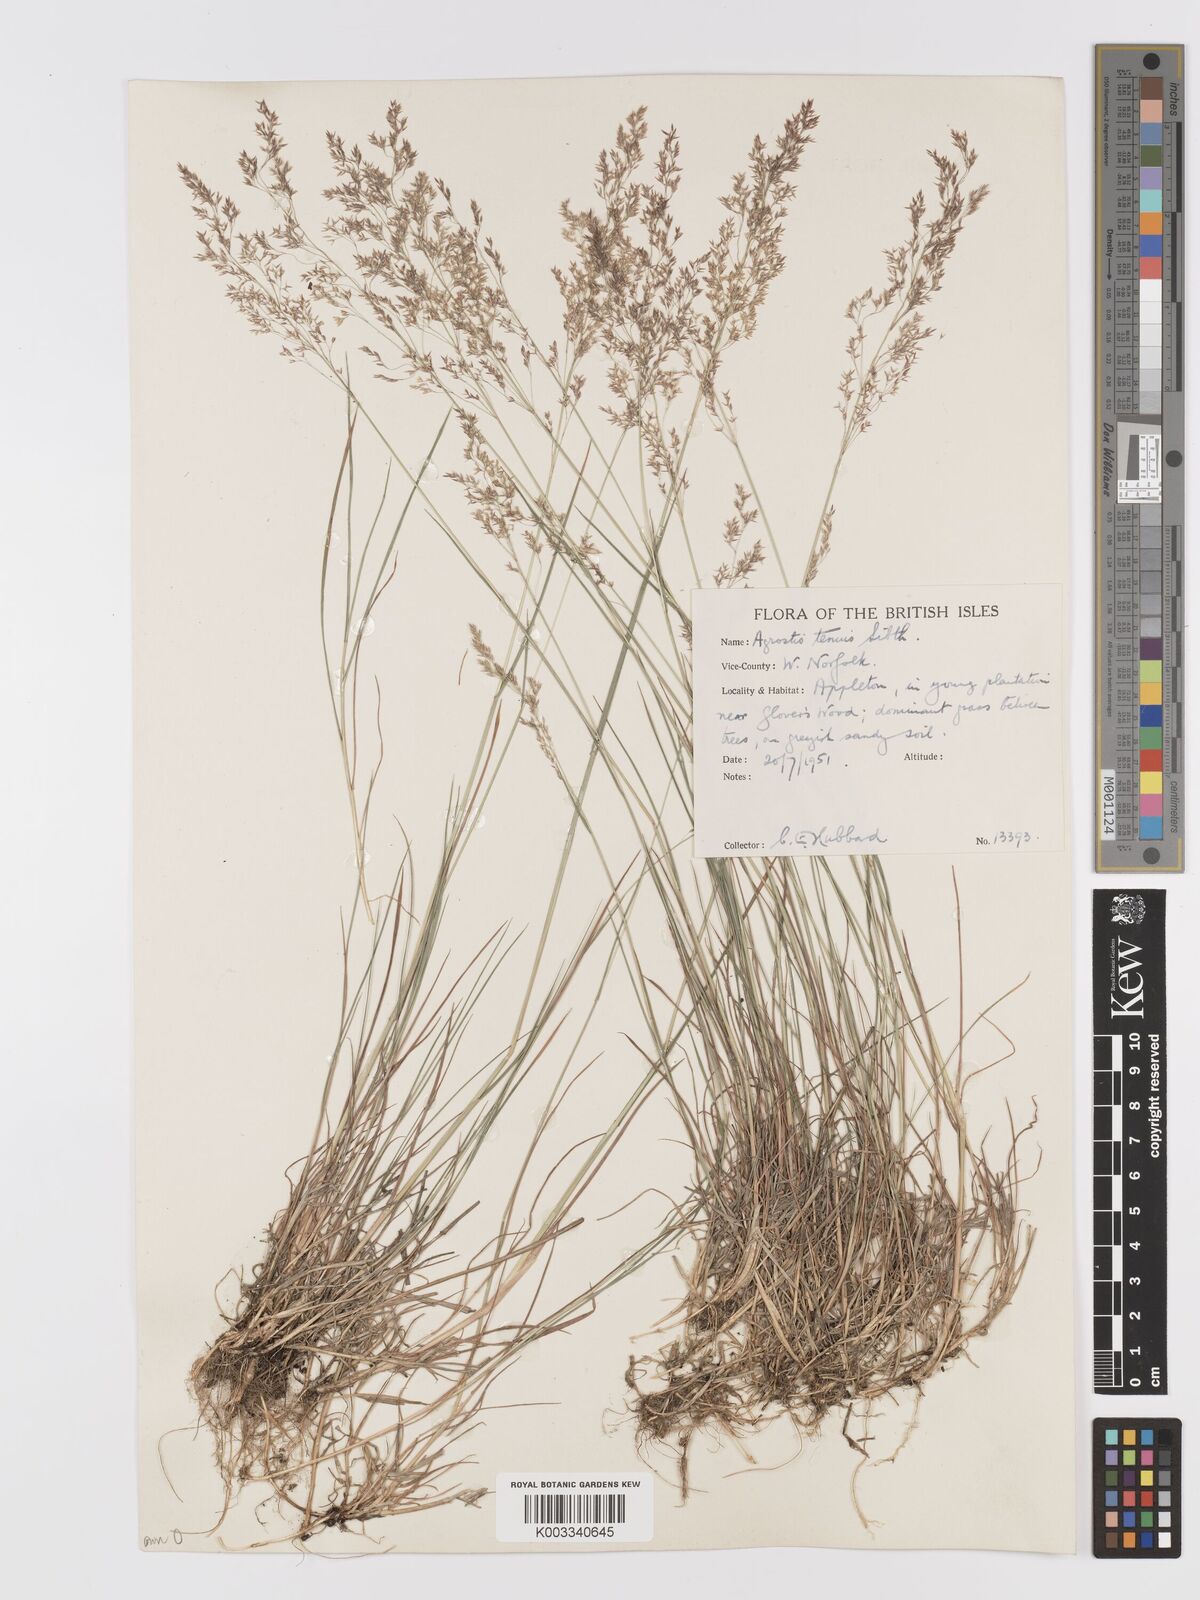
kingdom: Plantae
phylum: Tracheophyta
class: Liliopsida
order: Poales
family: Poaceae
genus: Agrostis
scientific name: Agrostis capillaris
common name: Colonial bentgrass
